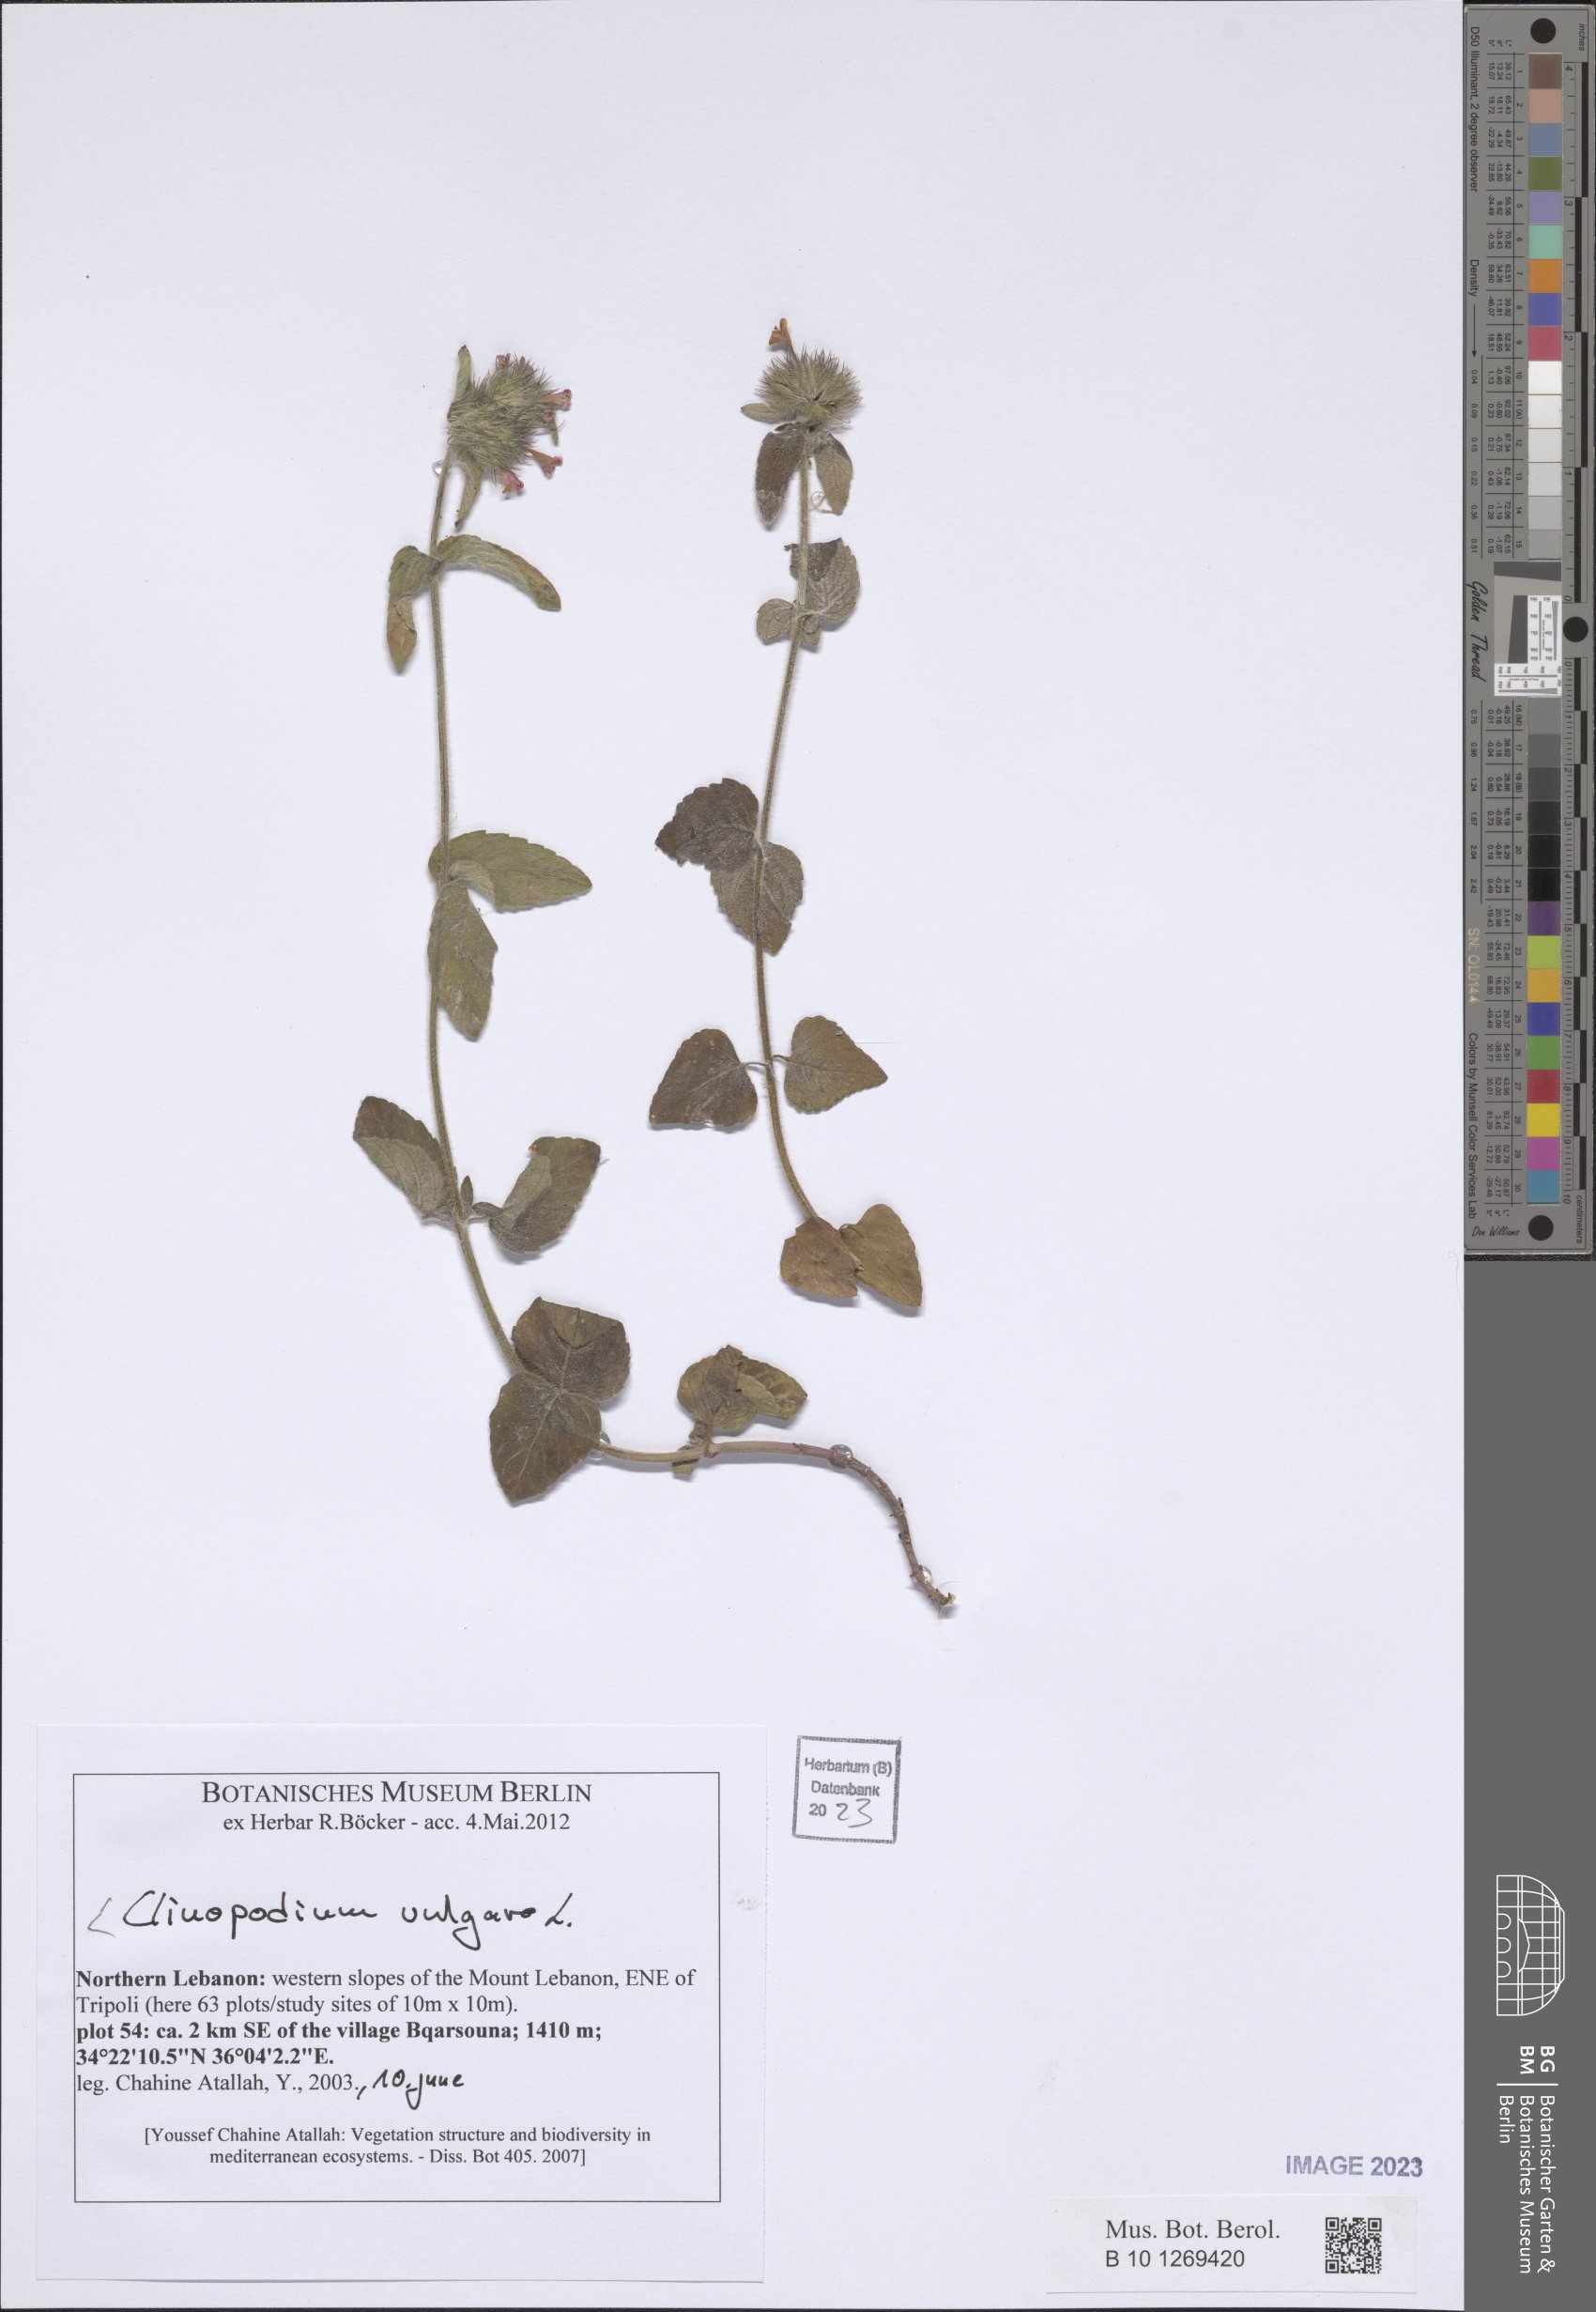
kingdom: Plantae
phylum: Tracheophyta
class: Magnoliopsida
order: Lamiales
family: Lamiaceae
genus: Clinopodium
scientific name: Clinopodium vulgare
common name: Wild basil
